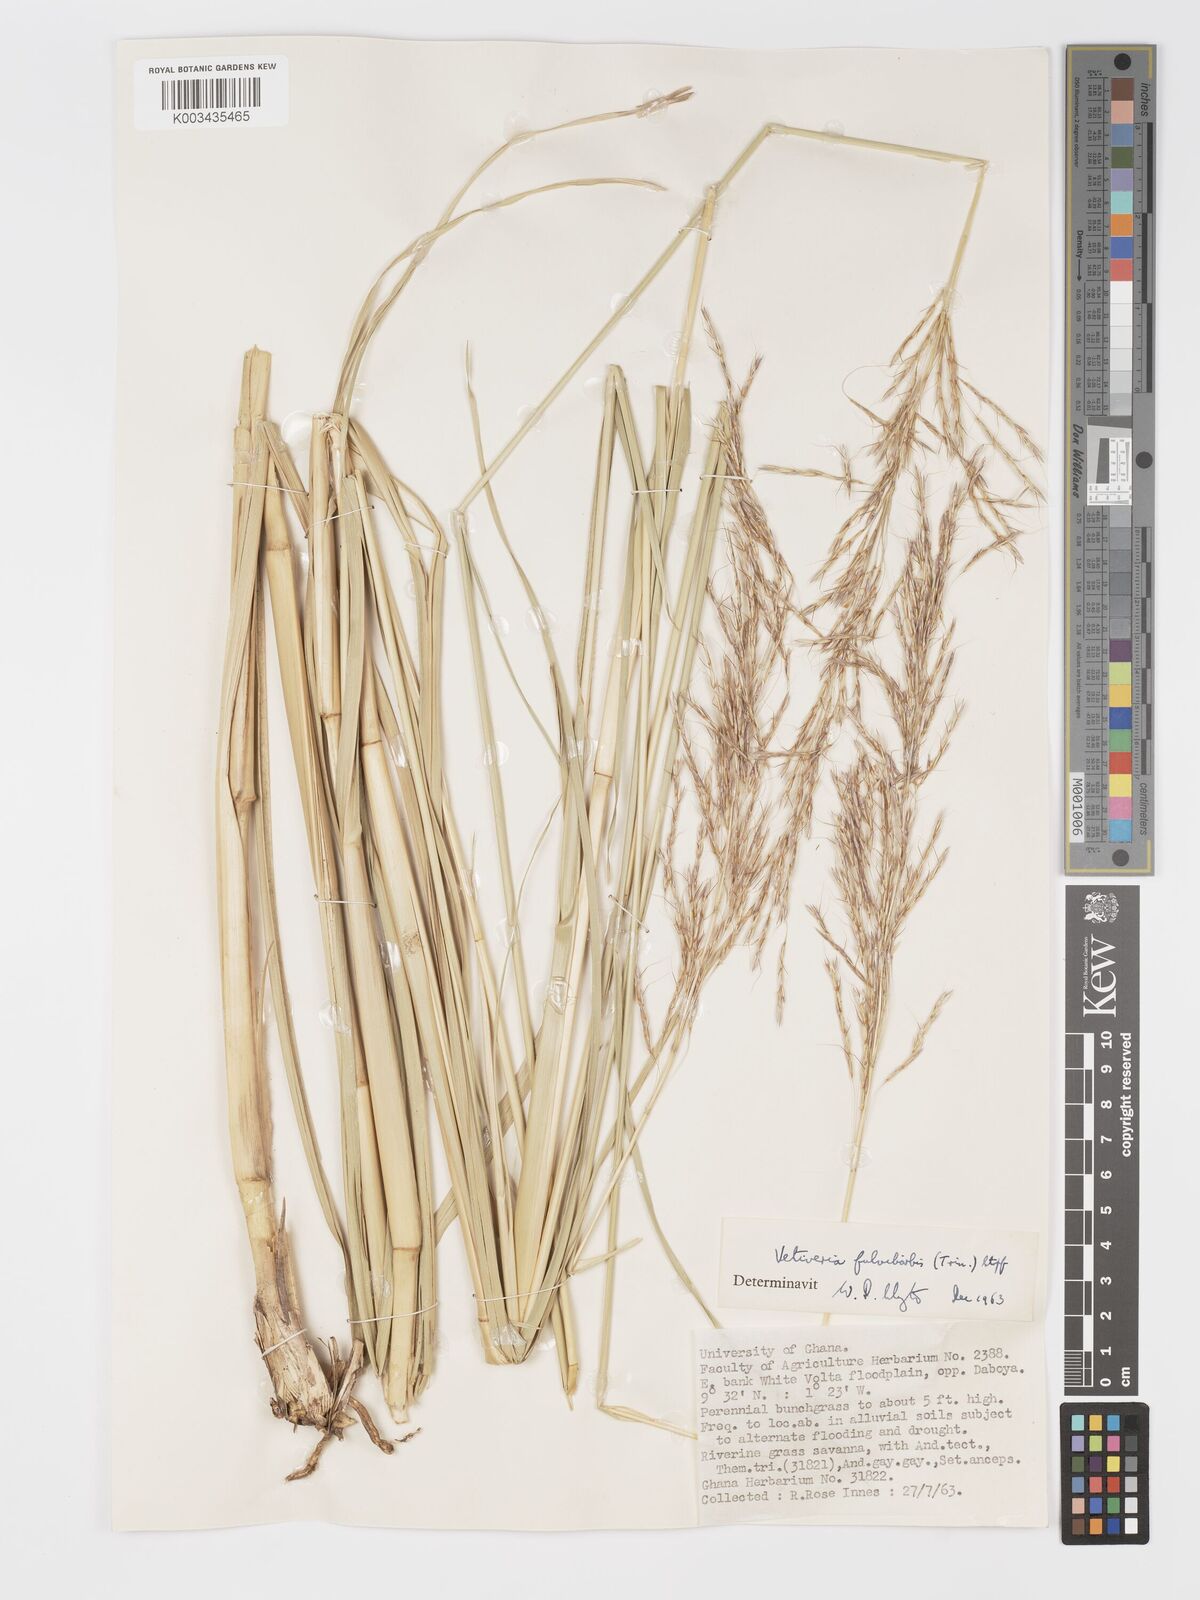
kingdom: Plantae
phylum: Tracheophyta
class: Liliopsida
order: Poales
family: Poaceae
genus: Chrysopogon
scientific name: Chrysopogon fulvibarbis
